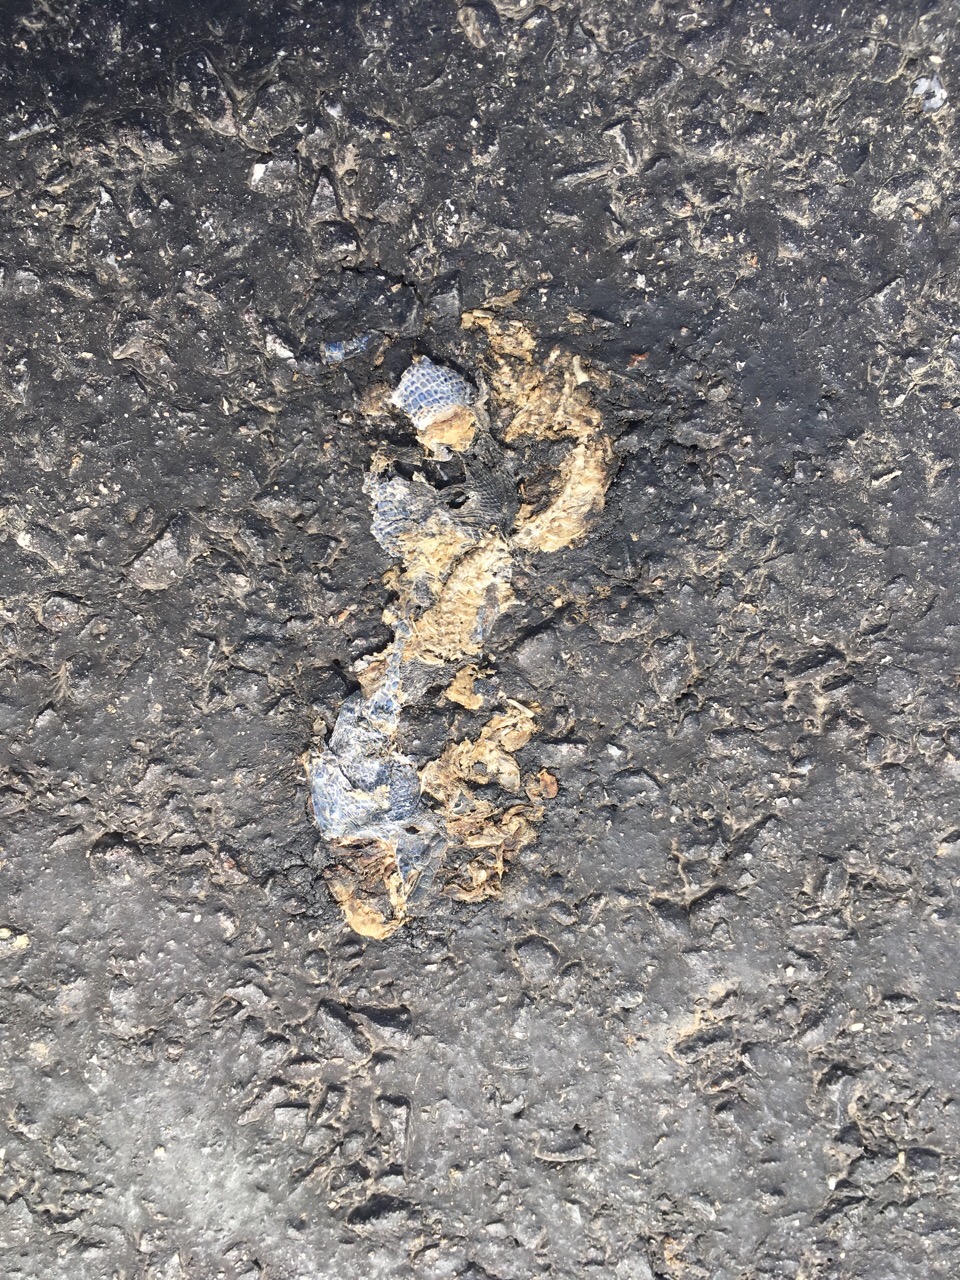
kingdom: Animalia
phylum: Chordata
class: Squamata
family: Lacertidae
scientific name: Lacertidae
